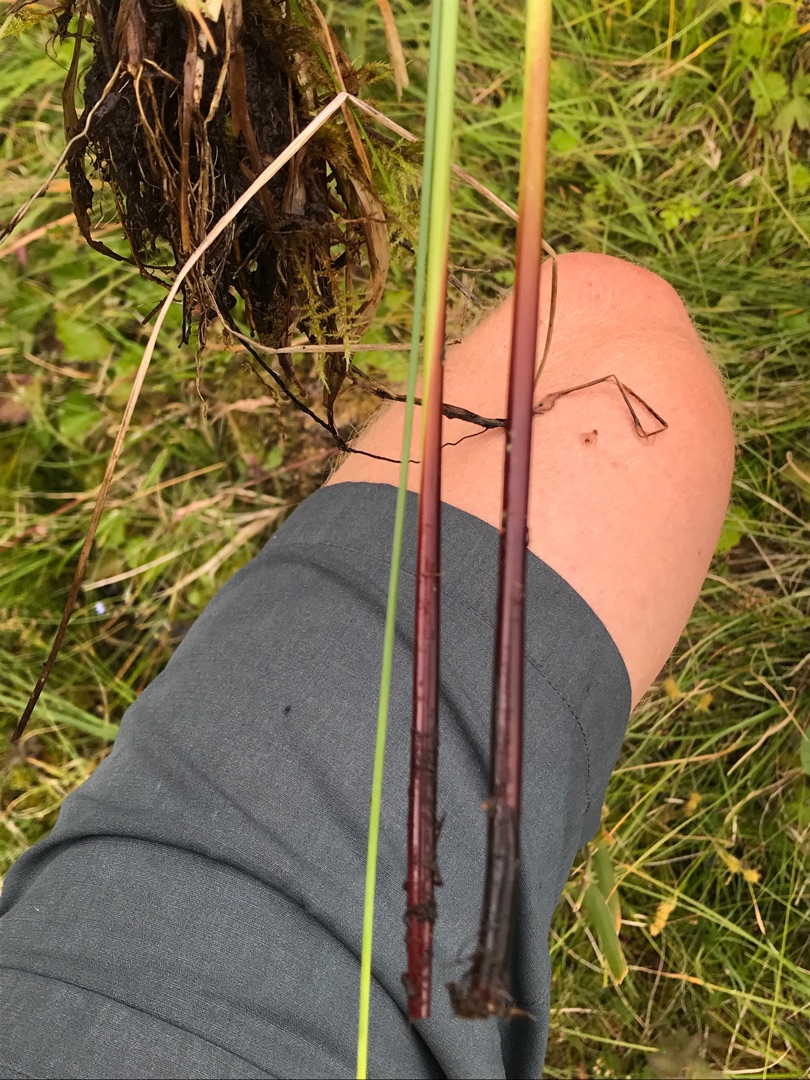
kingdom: Plantae
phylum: Tracheophyta
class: Liliopsida
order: Poales
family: Juncaceae
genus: Juncus
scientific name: Juncus inflexus
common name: Blågrå siv
